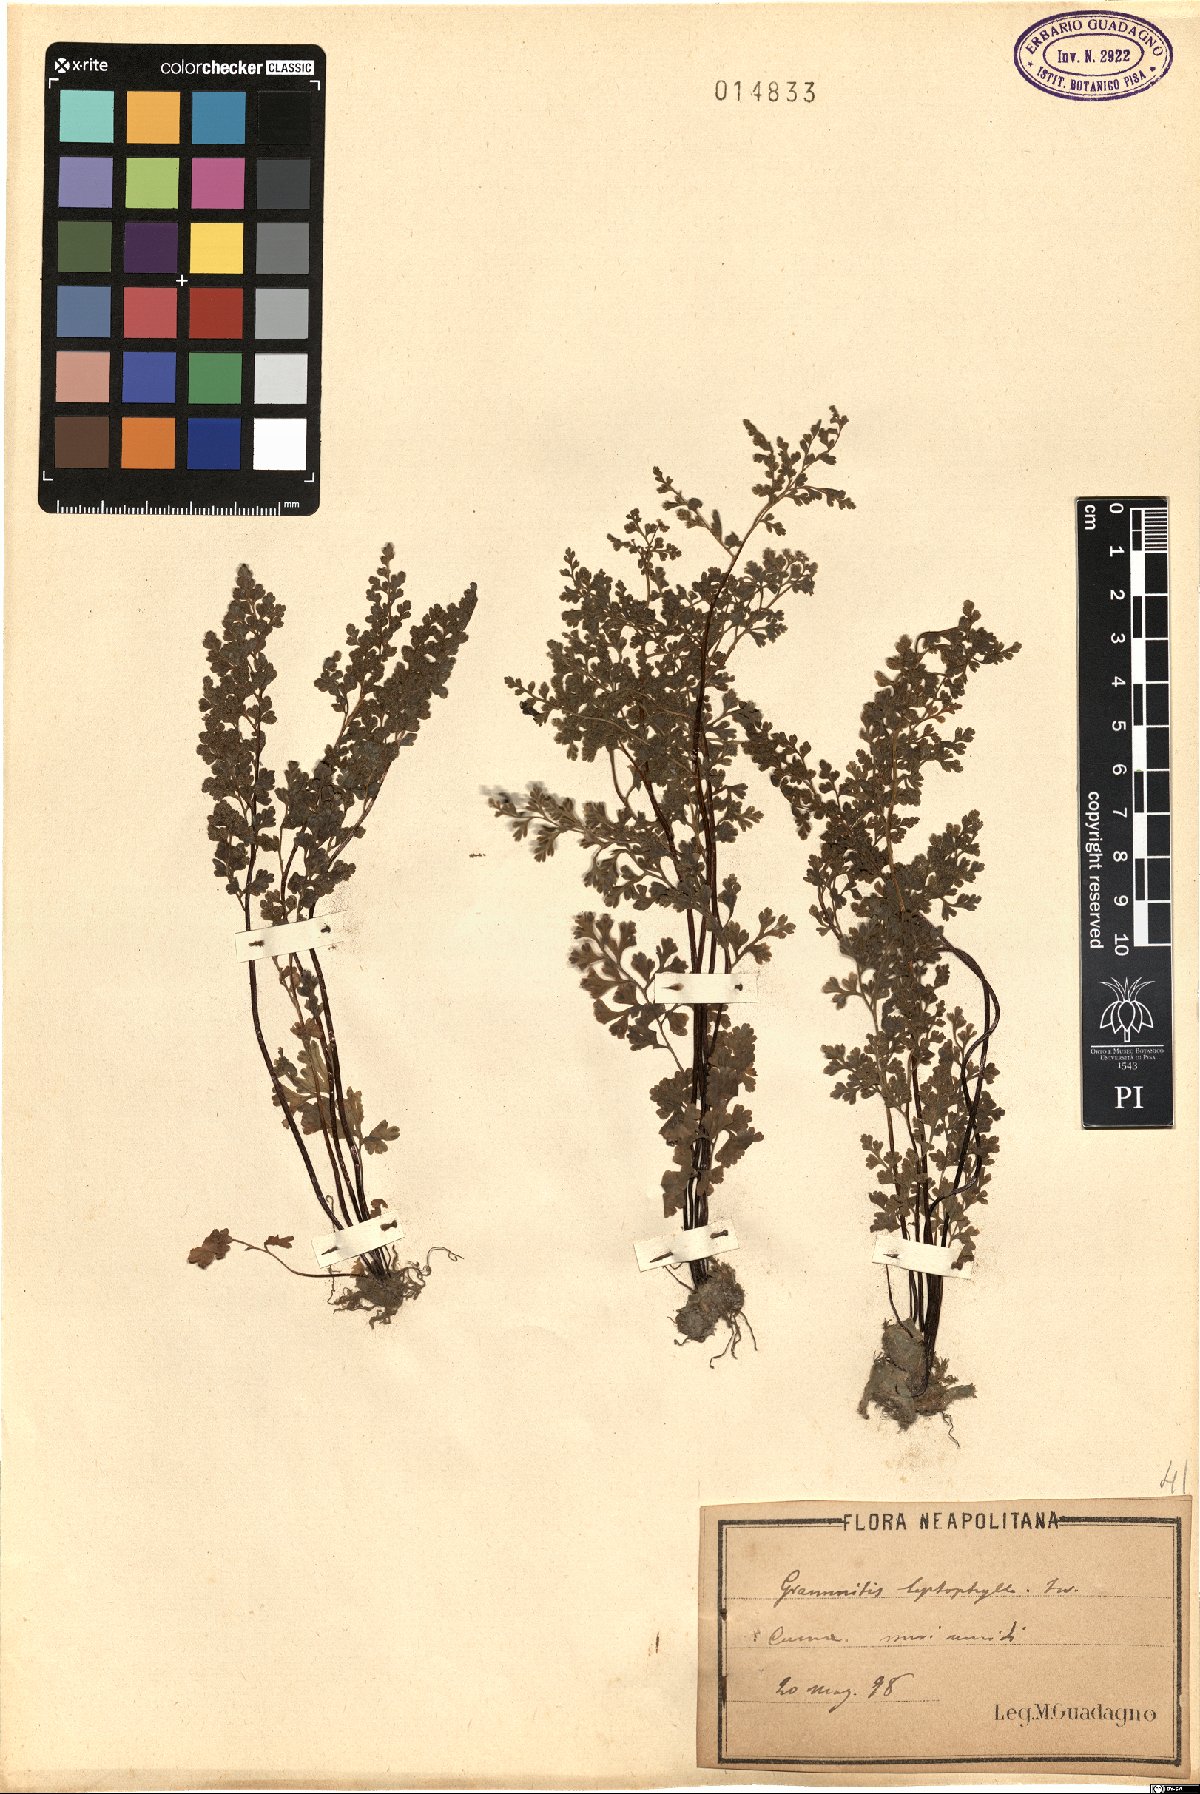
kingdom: Plantae
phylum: Tracheophyta
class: Polypodiopsida
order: Polypodiales
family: Pteridaceae
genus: Anogramma
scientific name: Anogramma leptophylla
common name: Jersey fern
